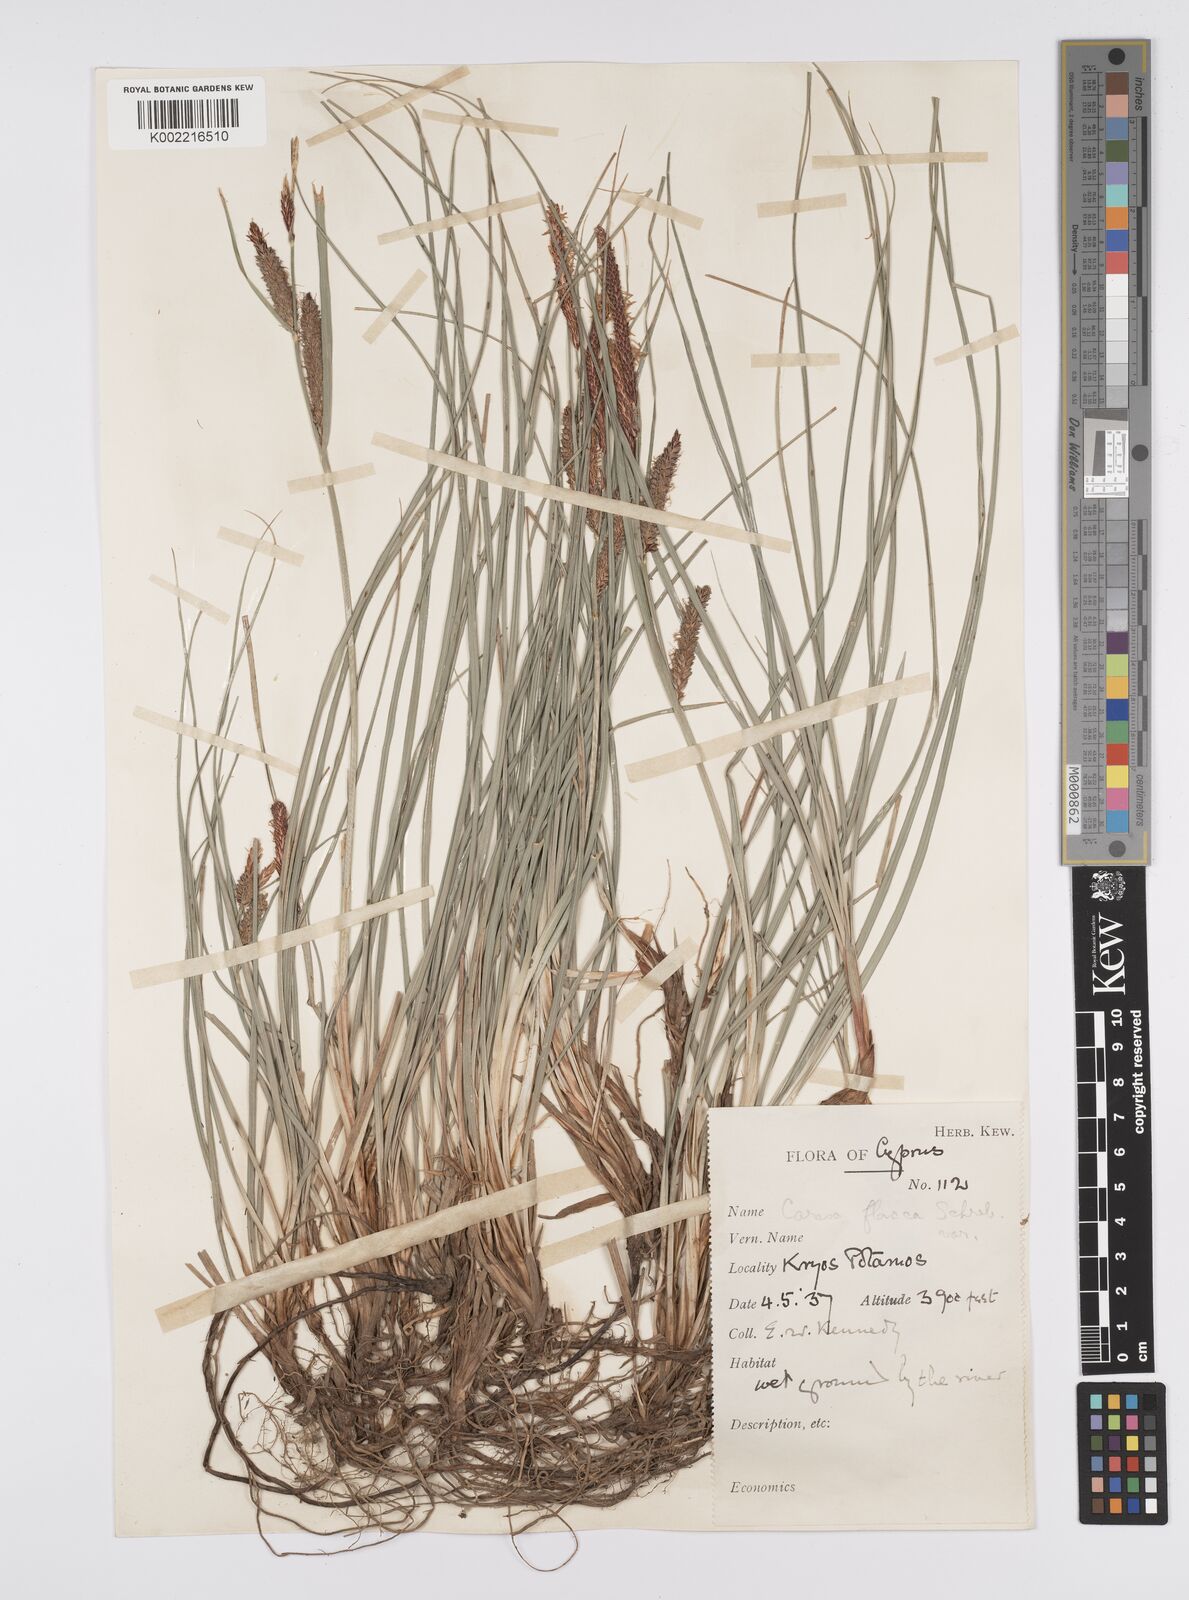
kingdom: Plantae
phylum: Tracheophyta
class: Liliopsida
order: Poales
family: Cyperaceae
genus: Carex
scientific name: Carex flacca
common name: Glaucous sedge
